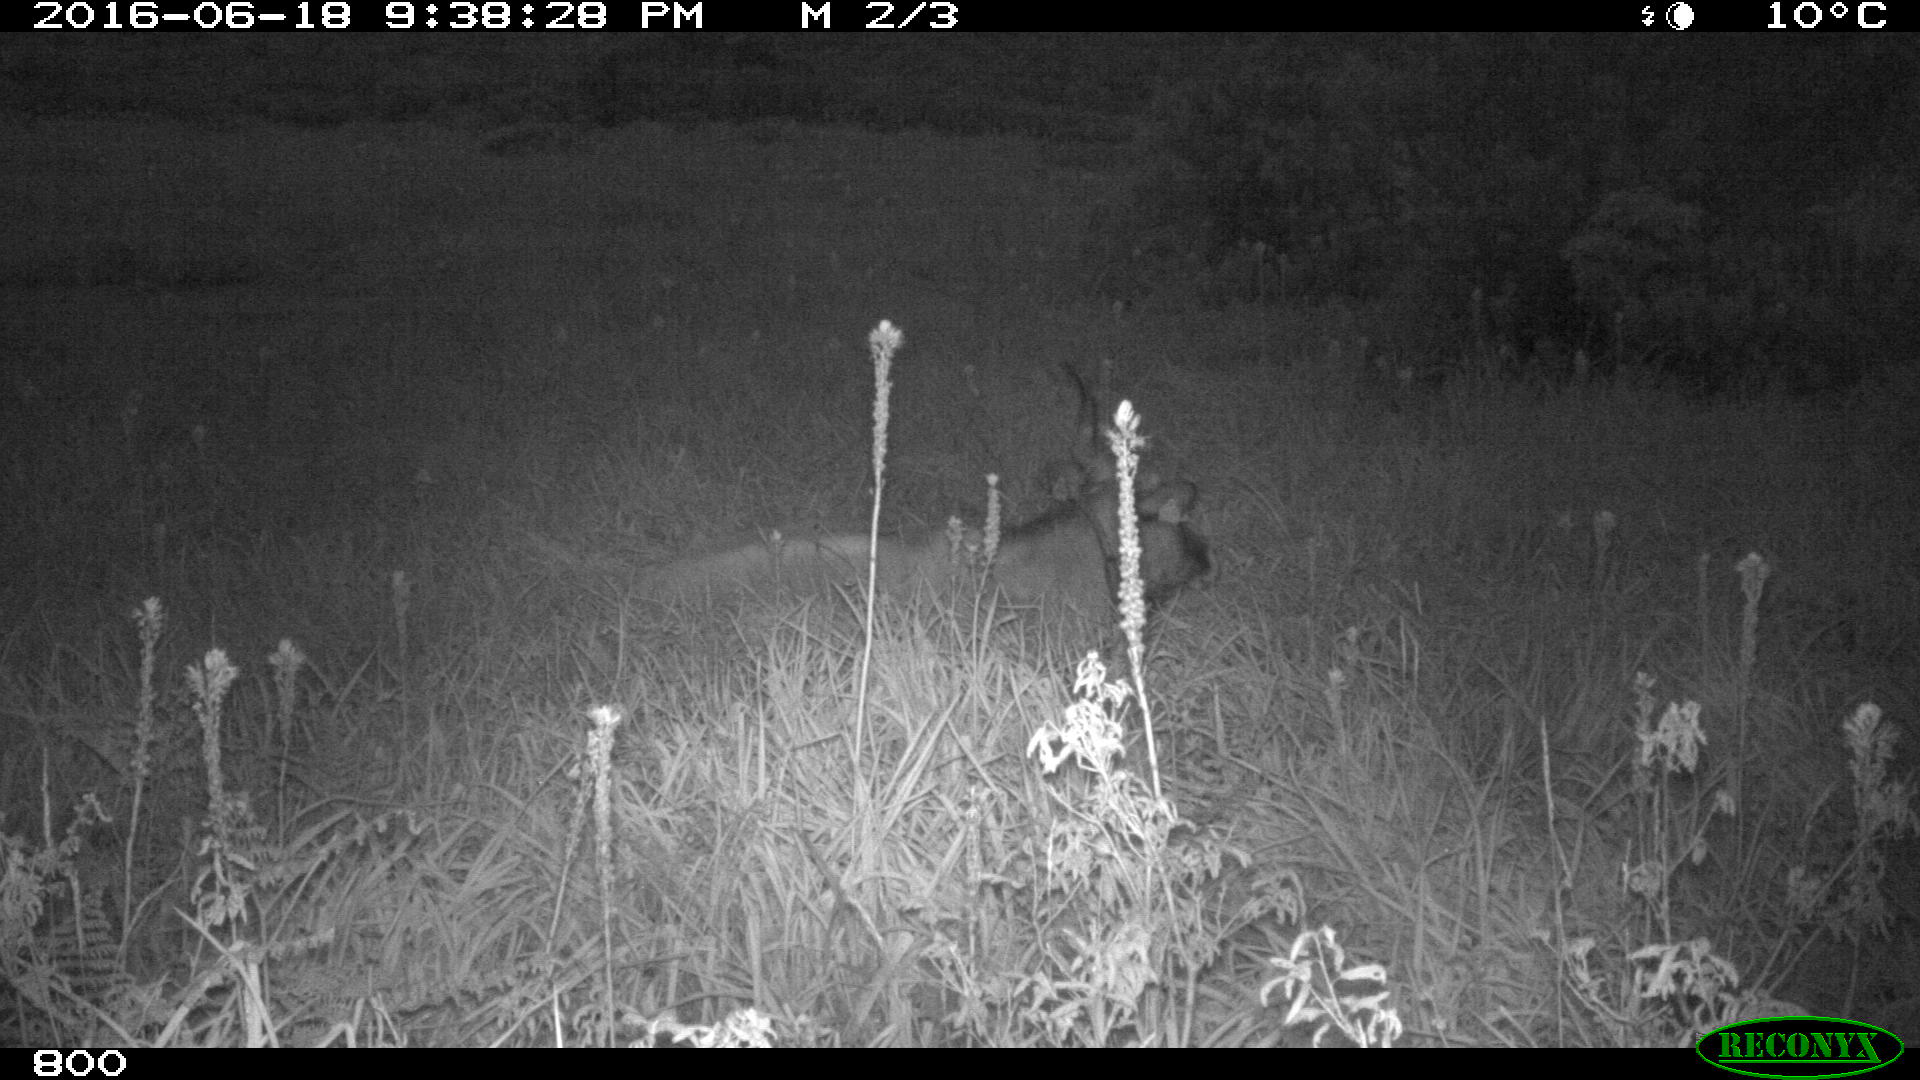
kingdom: Animalia
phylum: Chordata
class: Mammalia
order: Artiodactyla
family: Bovidae
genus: Bos
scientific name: Bos taurus
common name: Domesticated cattle
